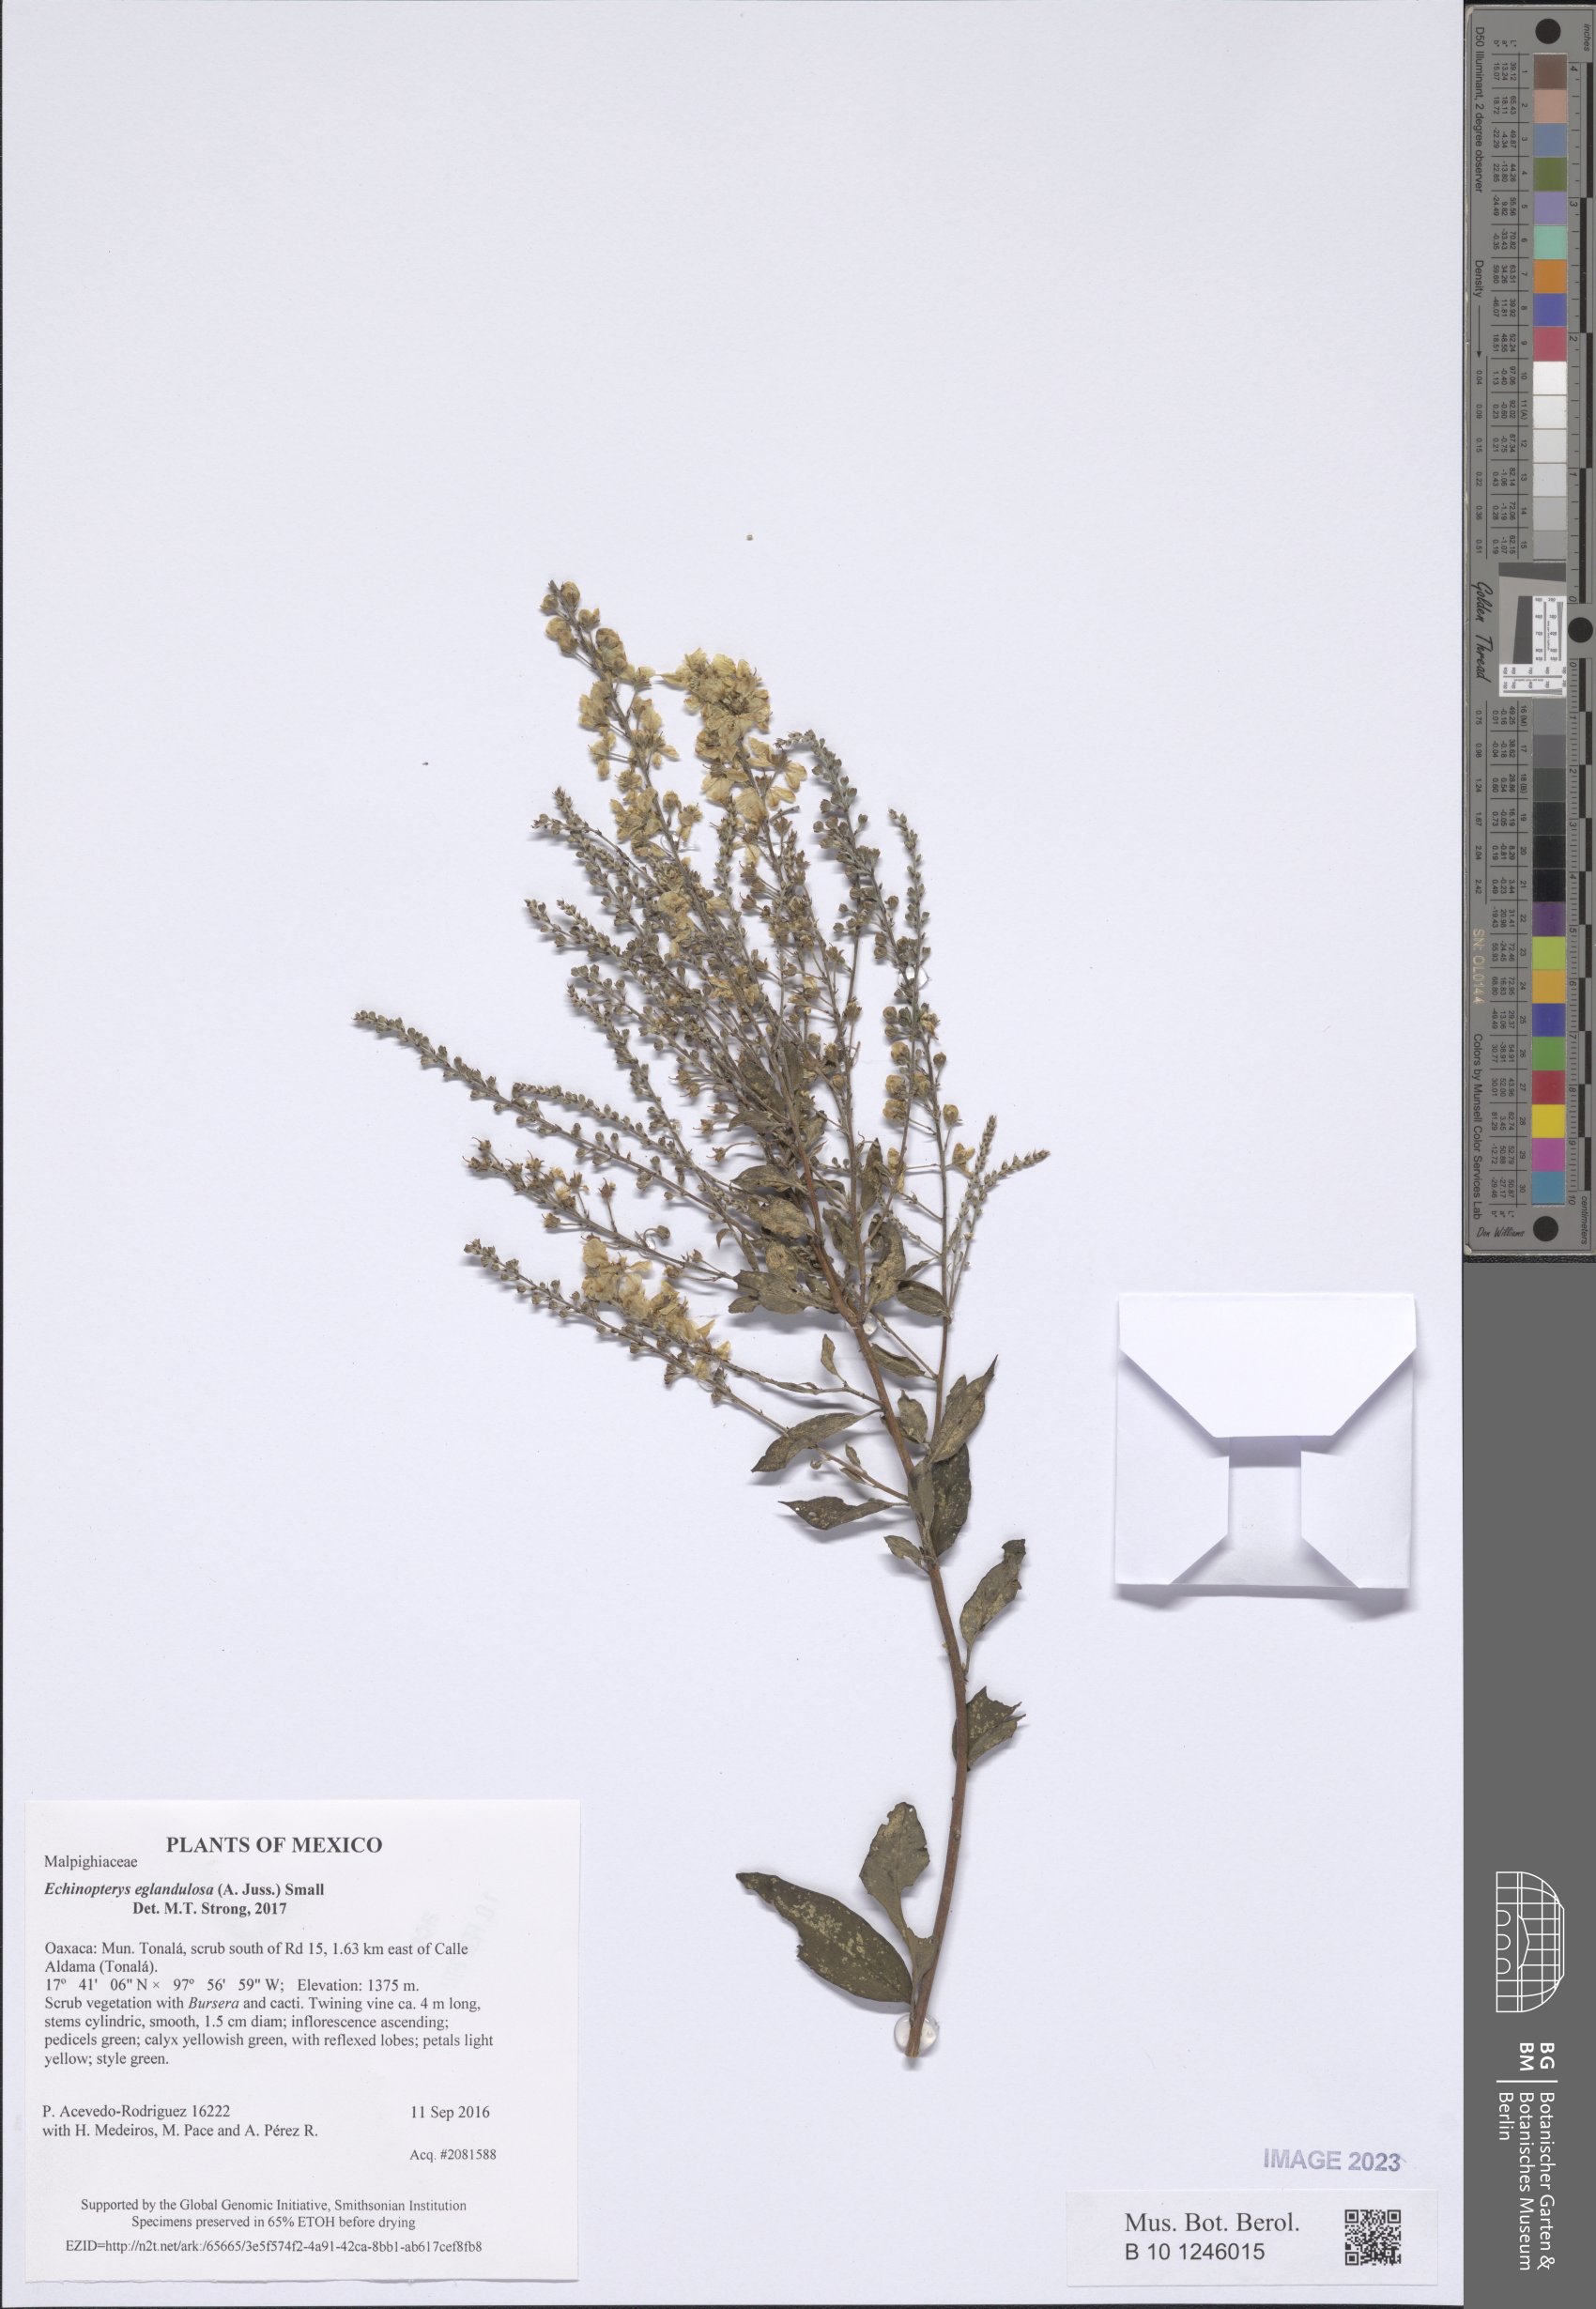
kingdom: Plantae
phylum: Tracheophyta
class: Magnoliopsida
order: Malpighiales
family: Malpighiaceae
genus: Echinopterys
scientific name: Echinopterys eglandulosa
